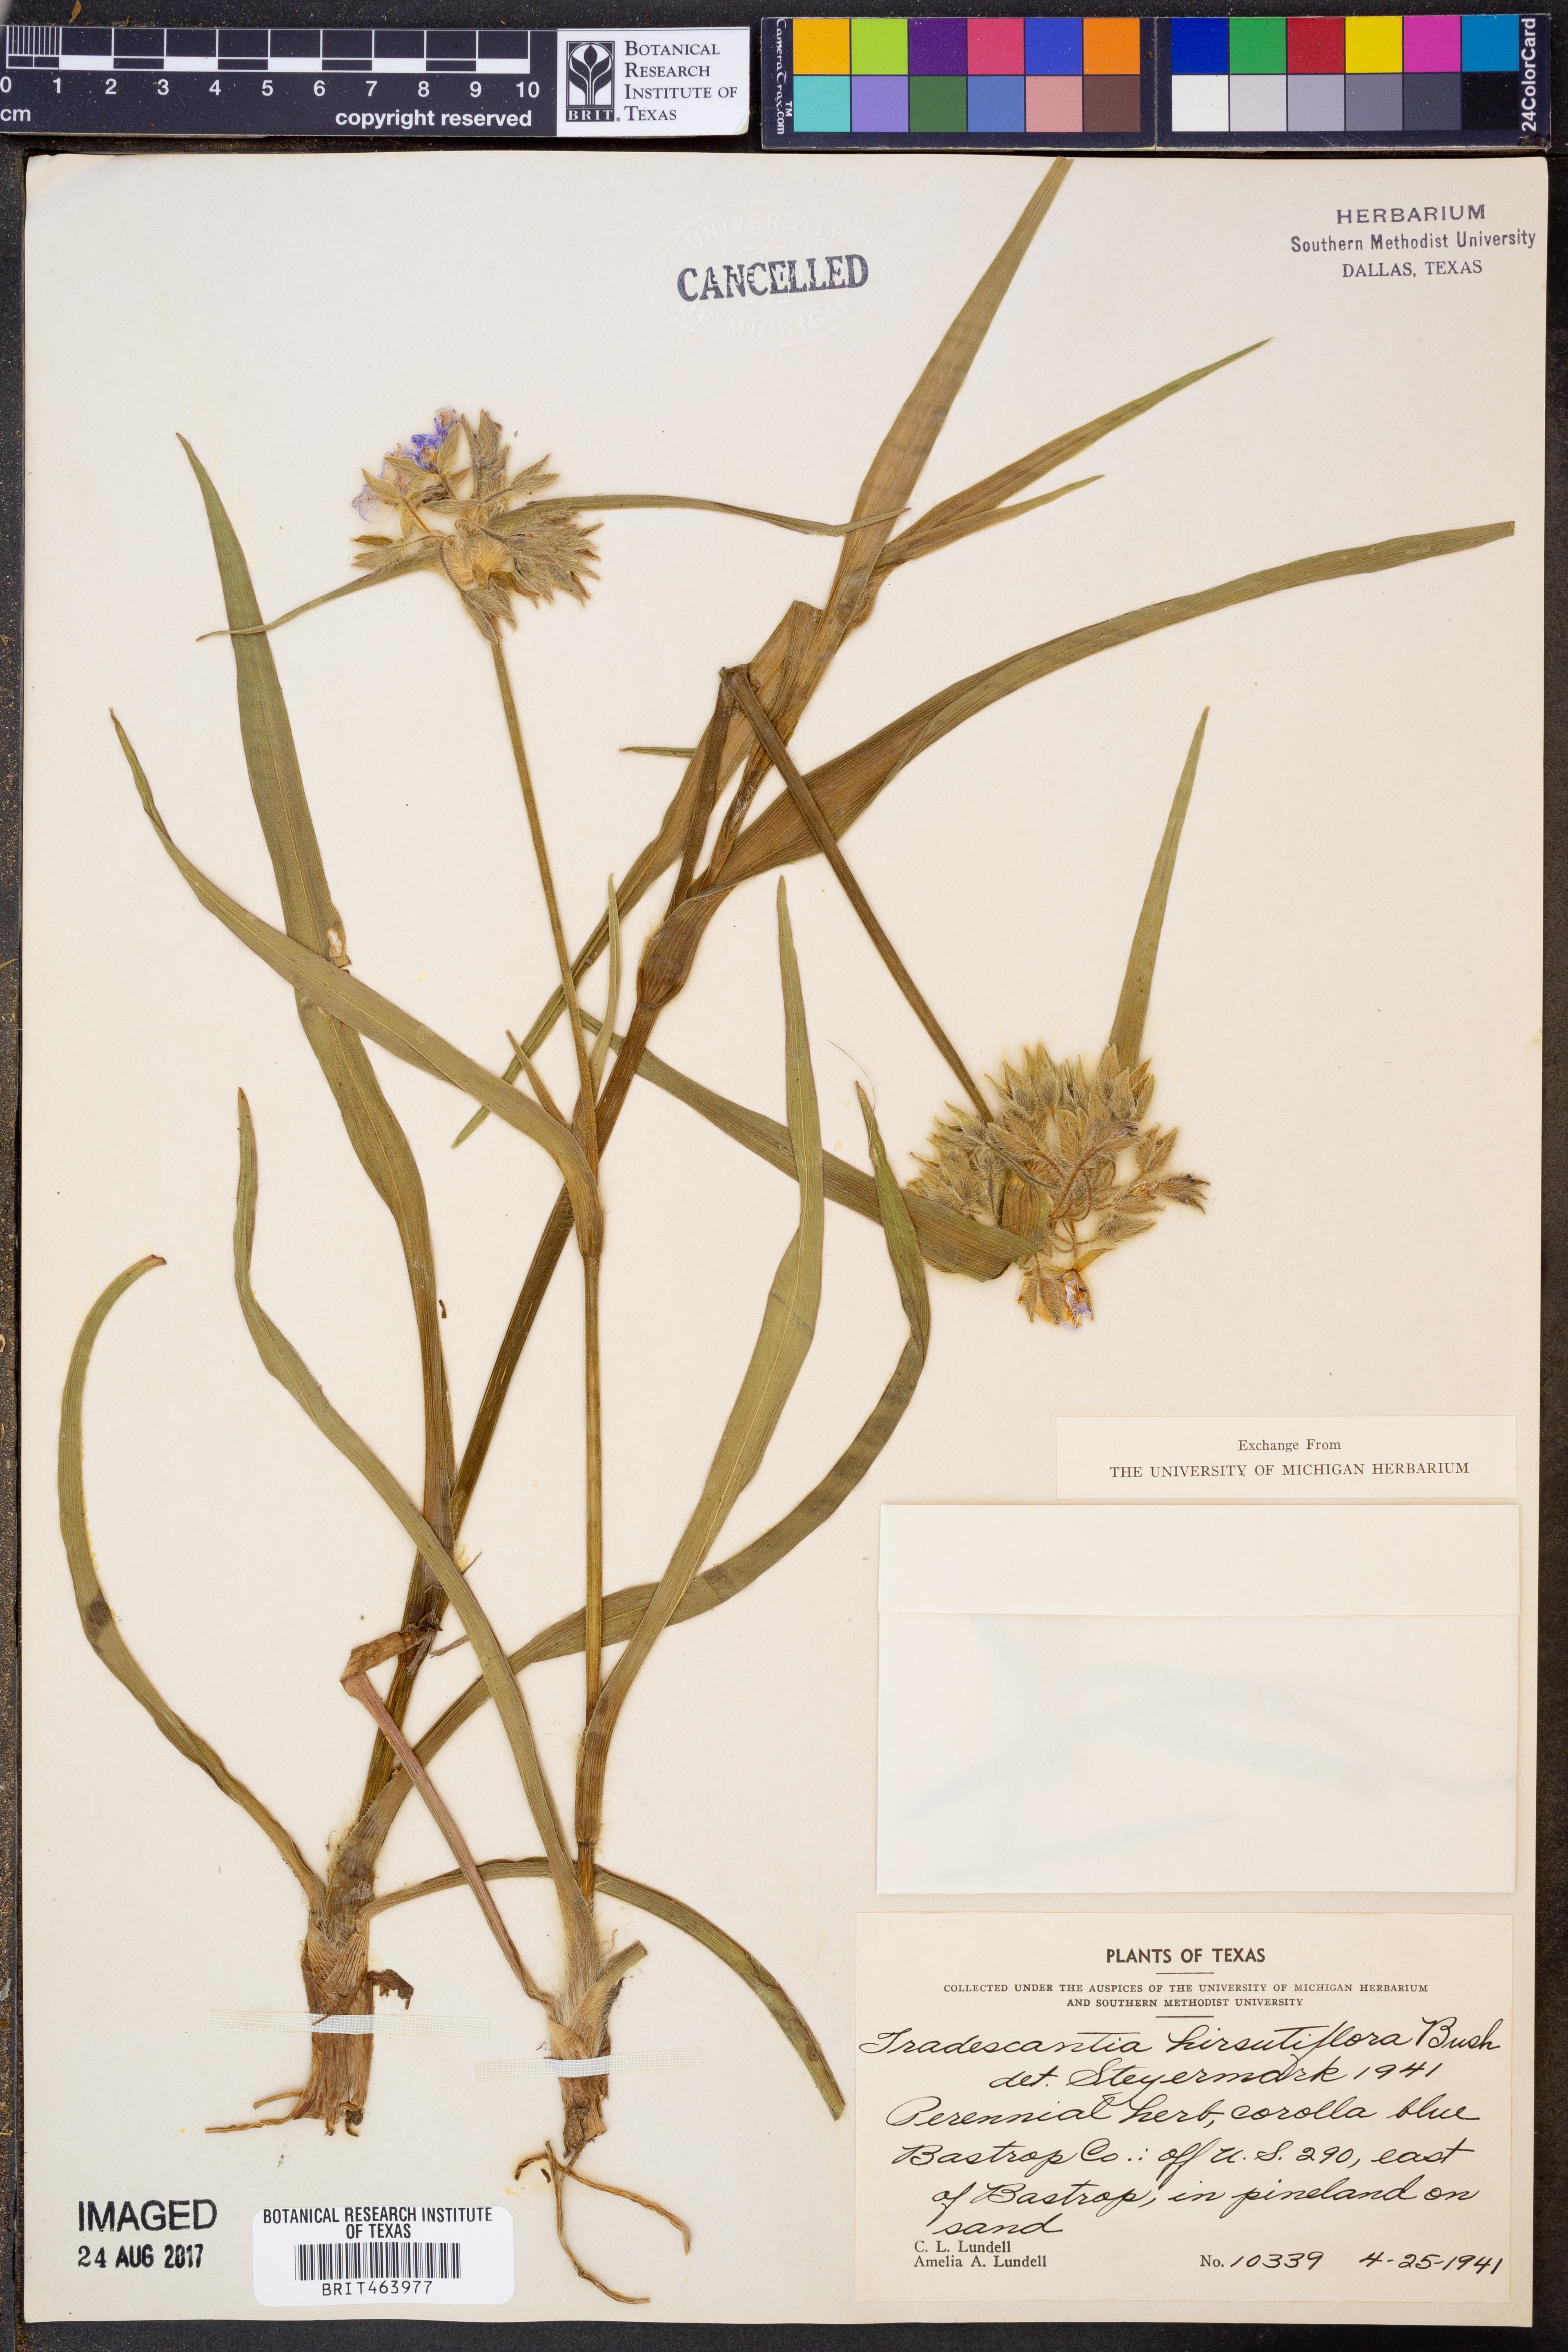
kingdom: Plantae
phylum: Tracheophyta
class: Liliopsida
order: Commelinales
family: Commelinaceae
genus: Tradescantia
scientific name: Tradescantia hirsutiflora
